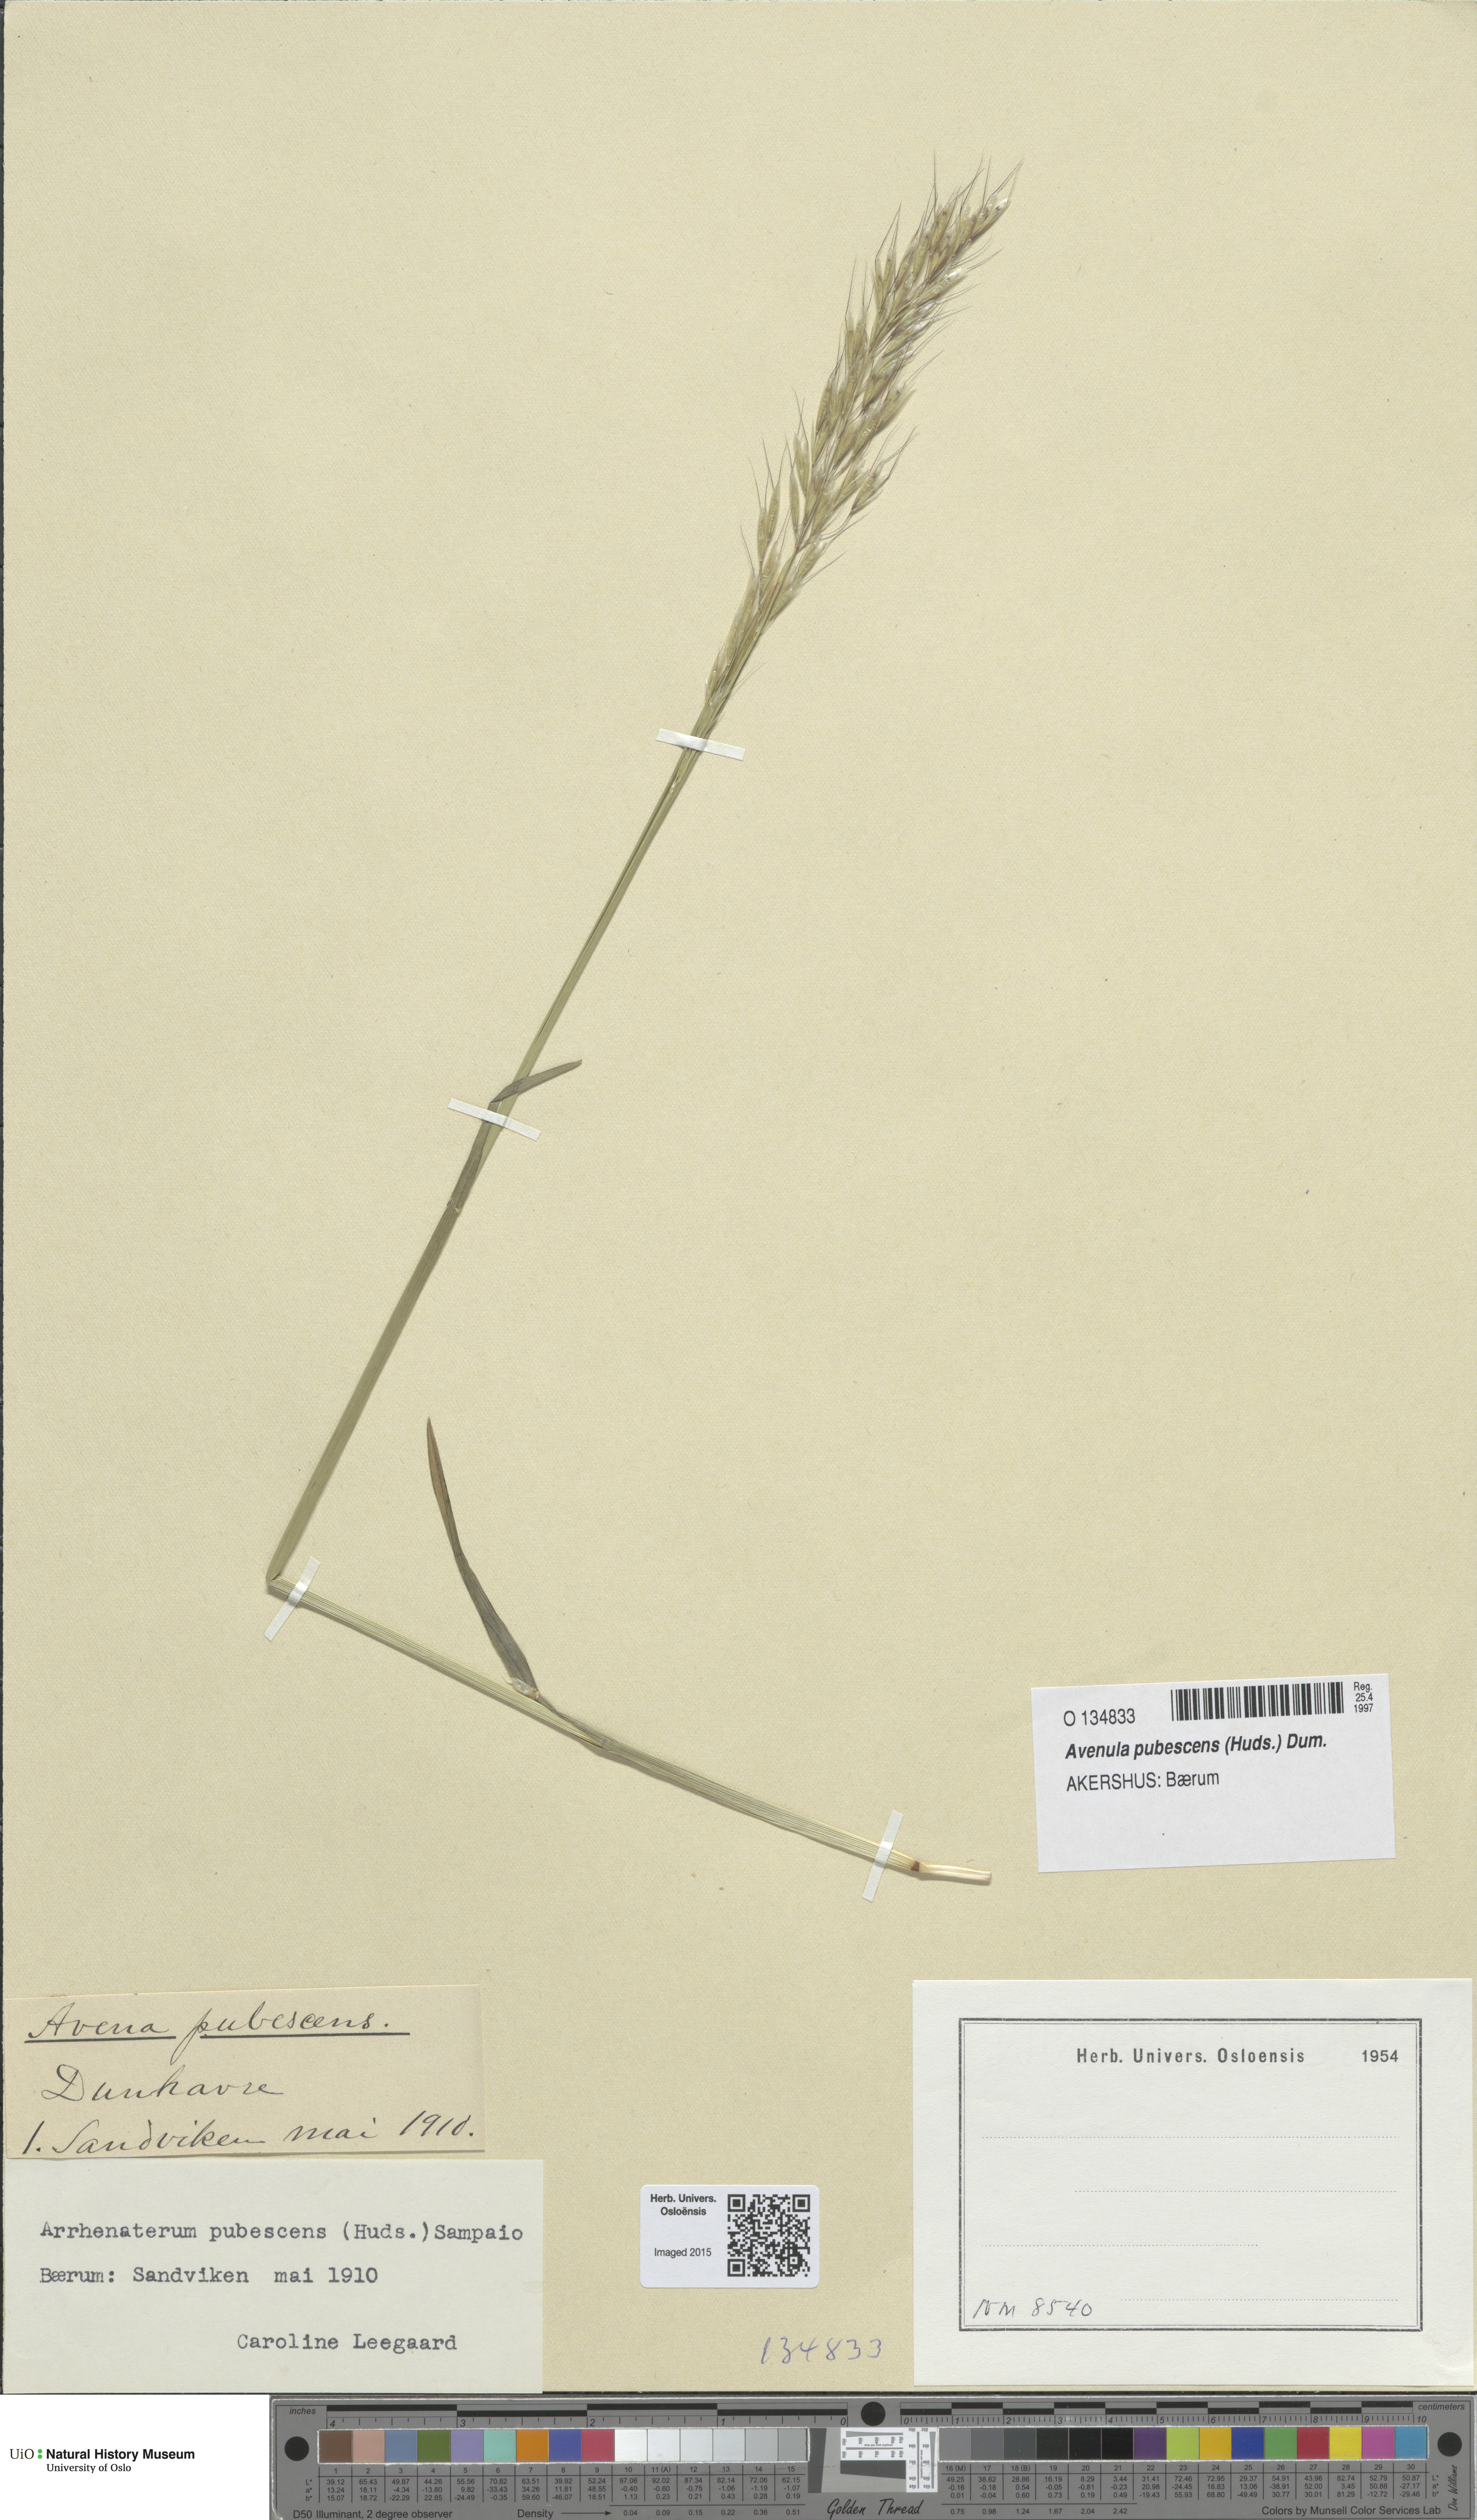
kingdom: Plantae
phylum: Tracheophyta
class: Liliopsida
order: Poales
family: Poaceae
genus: Avenula
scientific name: Avenula pubescens
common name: Downy alpine oatgrass
